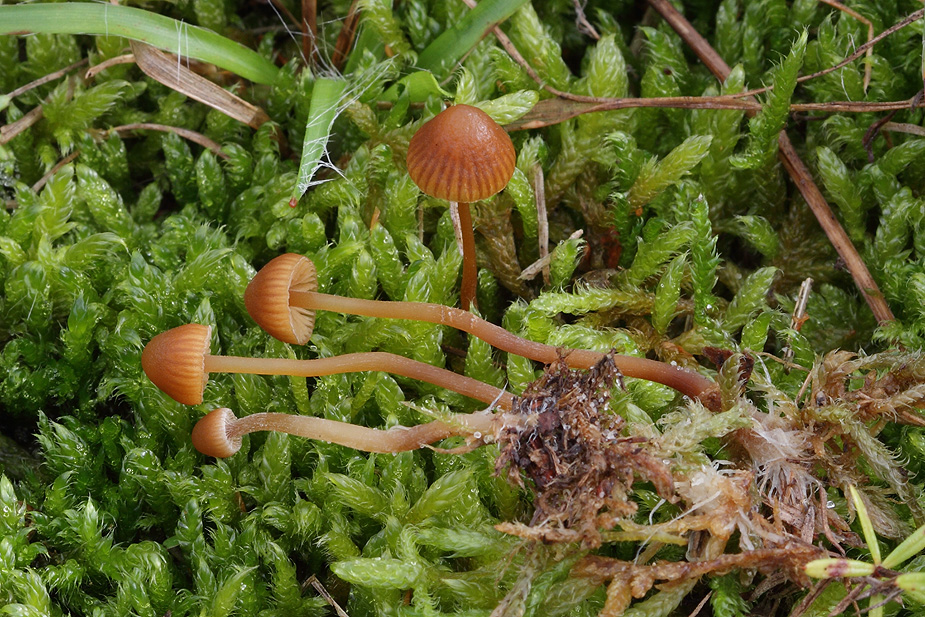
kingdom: Fungi
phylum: Basidiomycota
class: Agaricomycetes
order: Agaricales
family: Hymenogastraceae
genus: Galerina
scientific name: Galerina vittiformis
